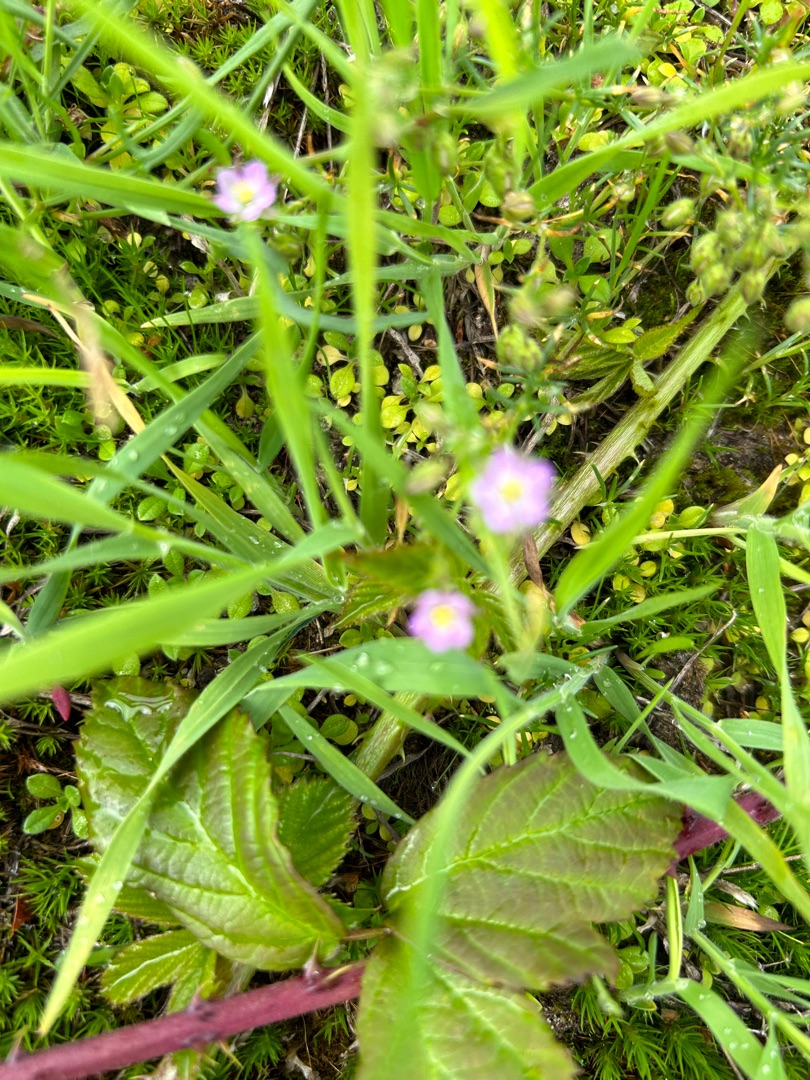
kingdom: Plantae
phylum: Tracheophyta
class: Magnoliopsida
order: Caryophyllales
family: Caryophyllaceae
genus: Spergularia
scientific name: Spergularia rubra
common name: Mark-hindeknæ
